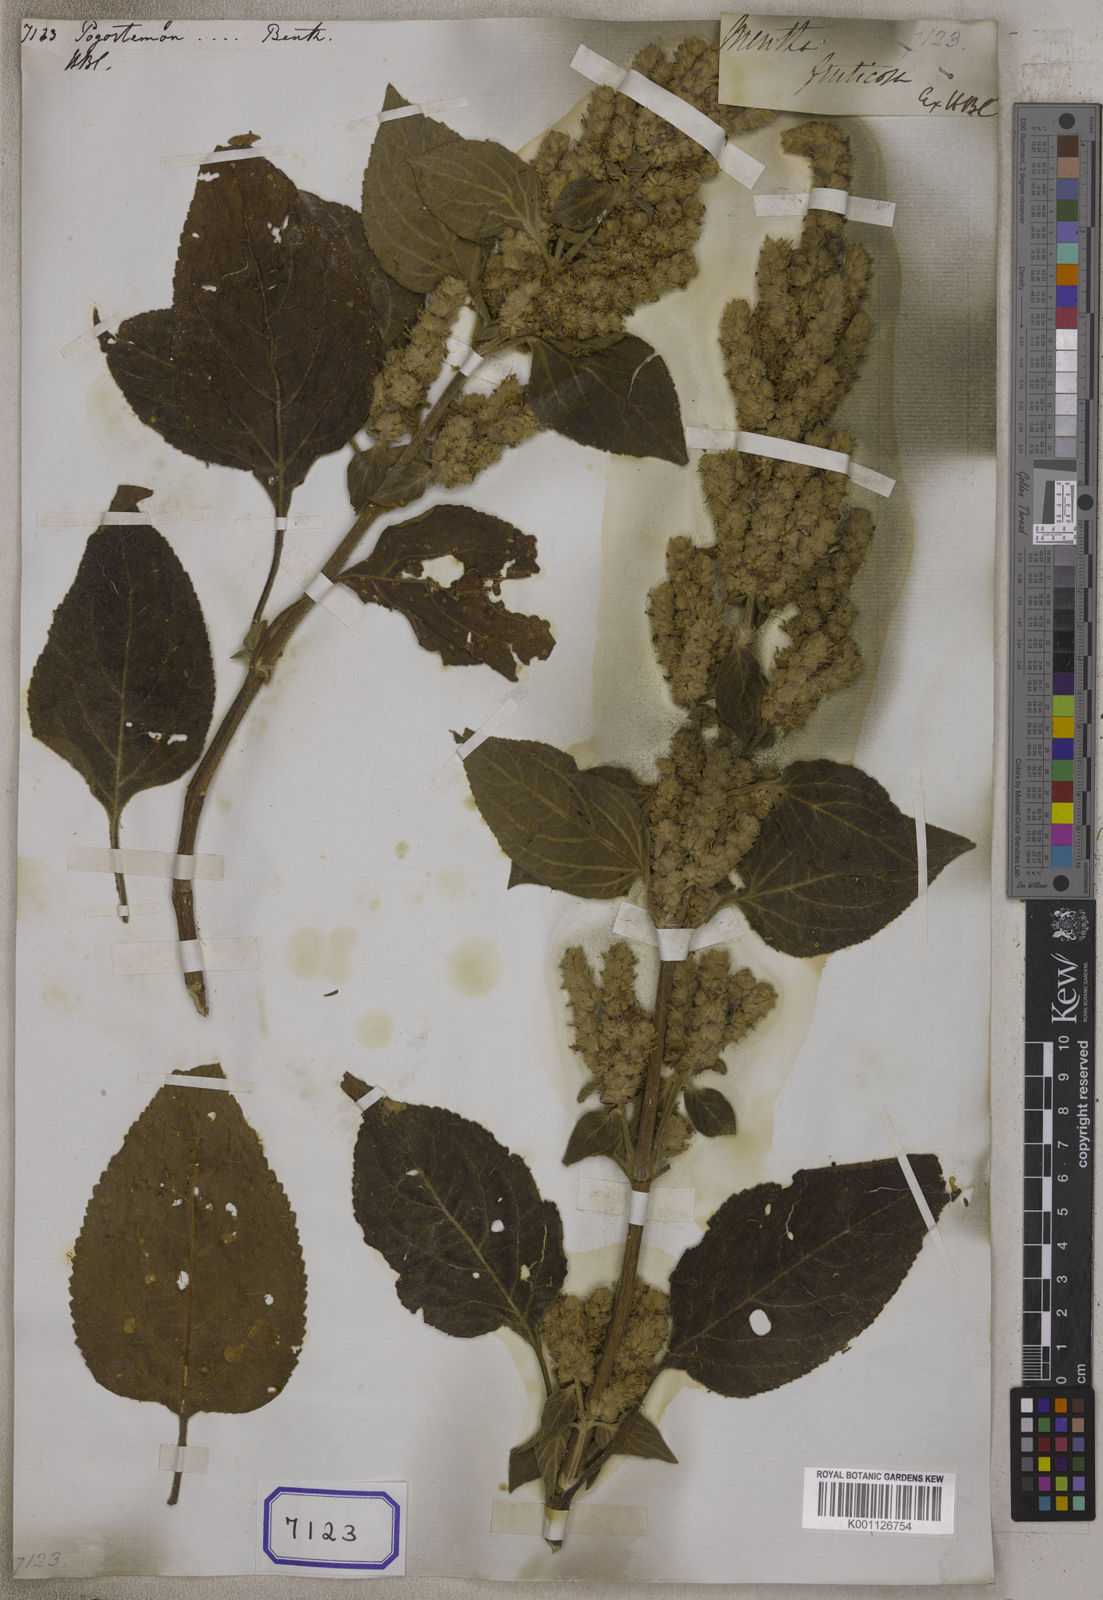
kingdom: Plantae
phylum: Tracheophyta
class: Magnoliopsida
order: Lamiales
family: Lamiaceae
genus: Pogostemon
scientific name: Pogostemon
